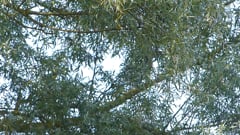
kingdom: Animalia
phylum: Chordata
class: Aves
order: Passeriformes
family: Oriolidae
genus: Oriolus
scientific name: Oriolus oriolus
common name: Eurasian golden oriole
